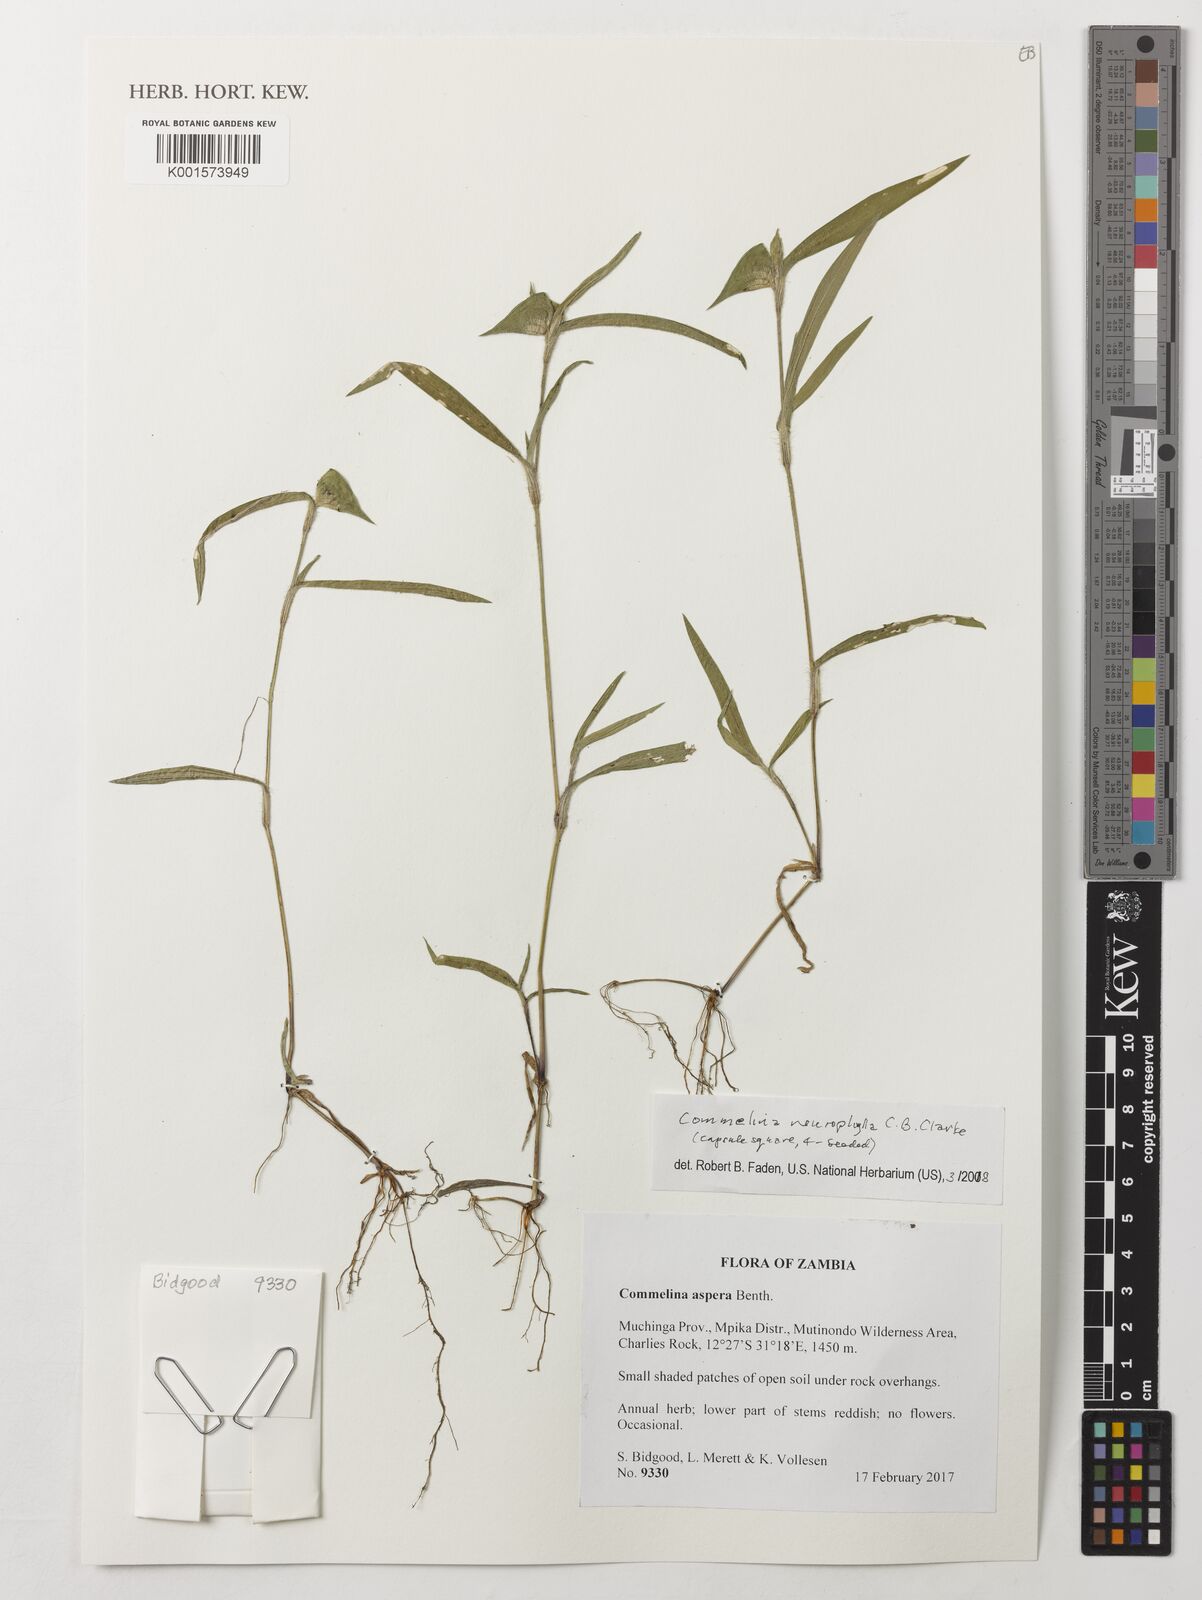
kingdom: Plantae
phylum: Tracheophyta
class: Liliopsida
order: Commelinales
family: Commelinaceae
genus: Commelina
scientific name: Commelina neurophylla
